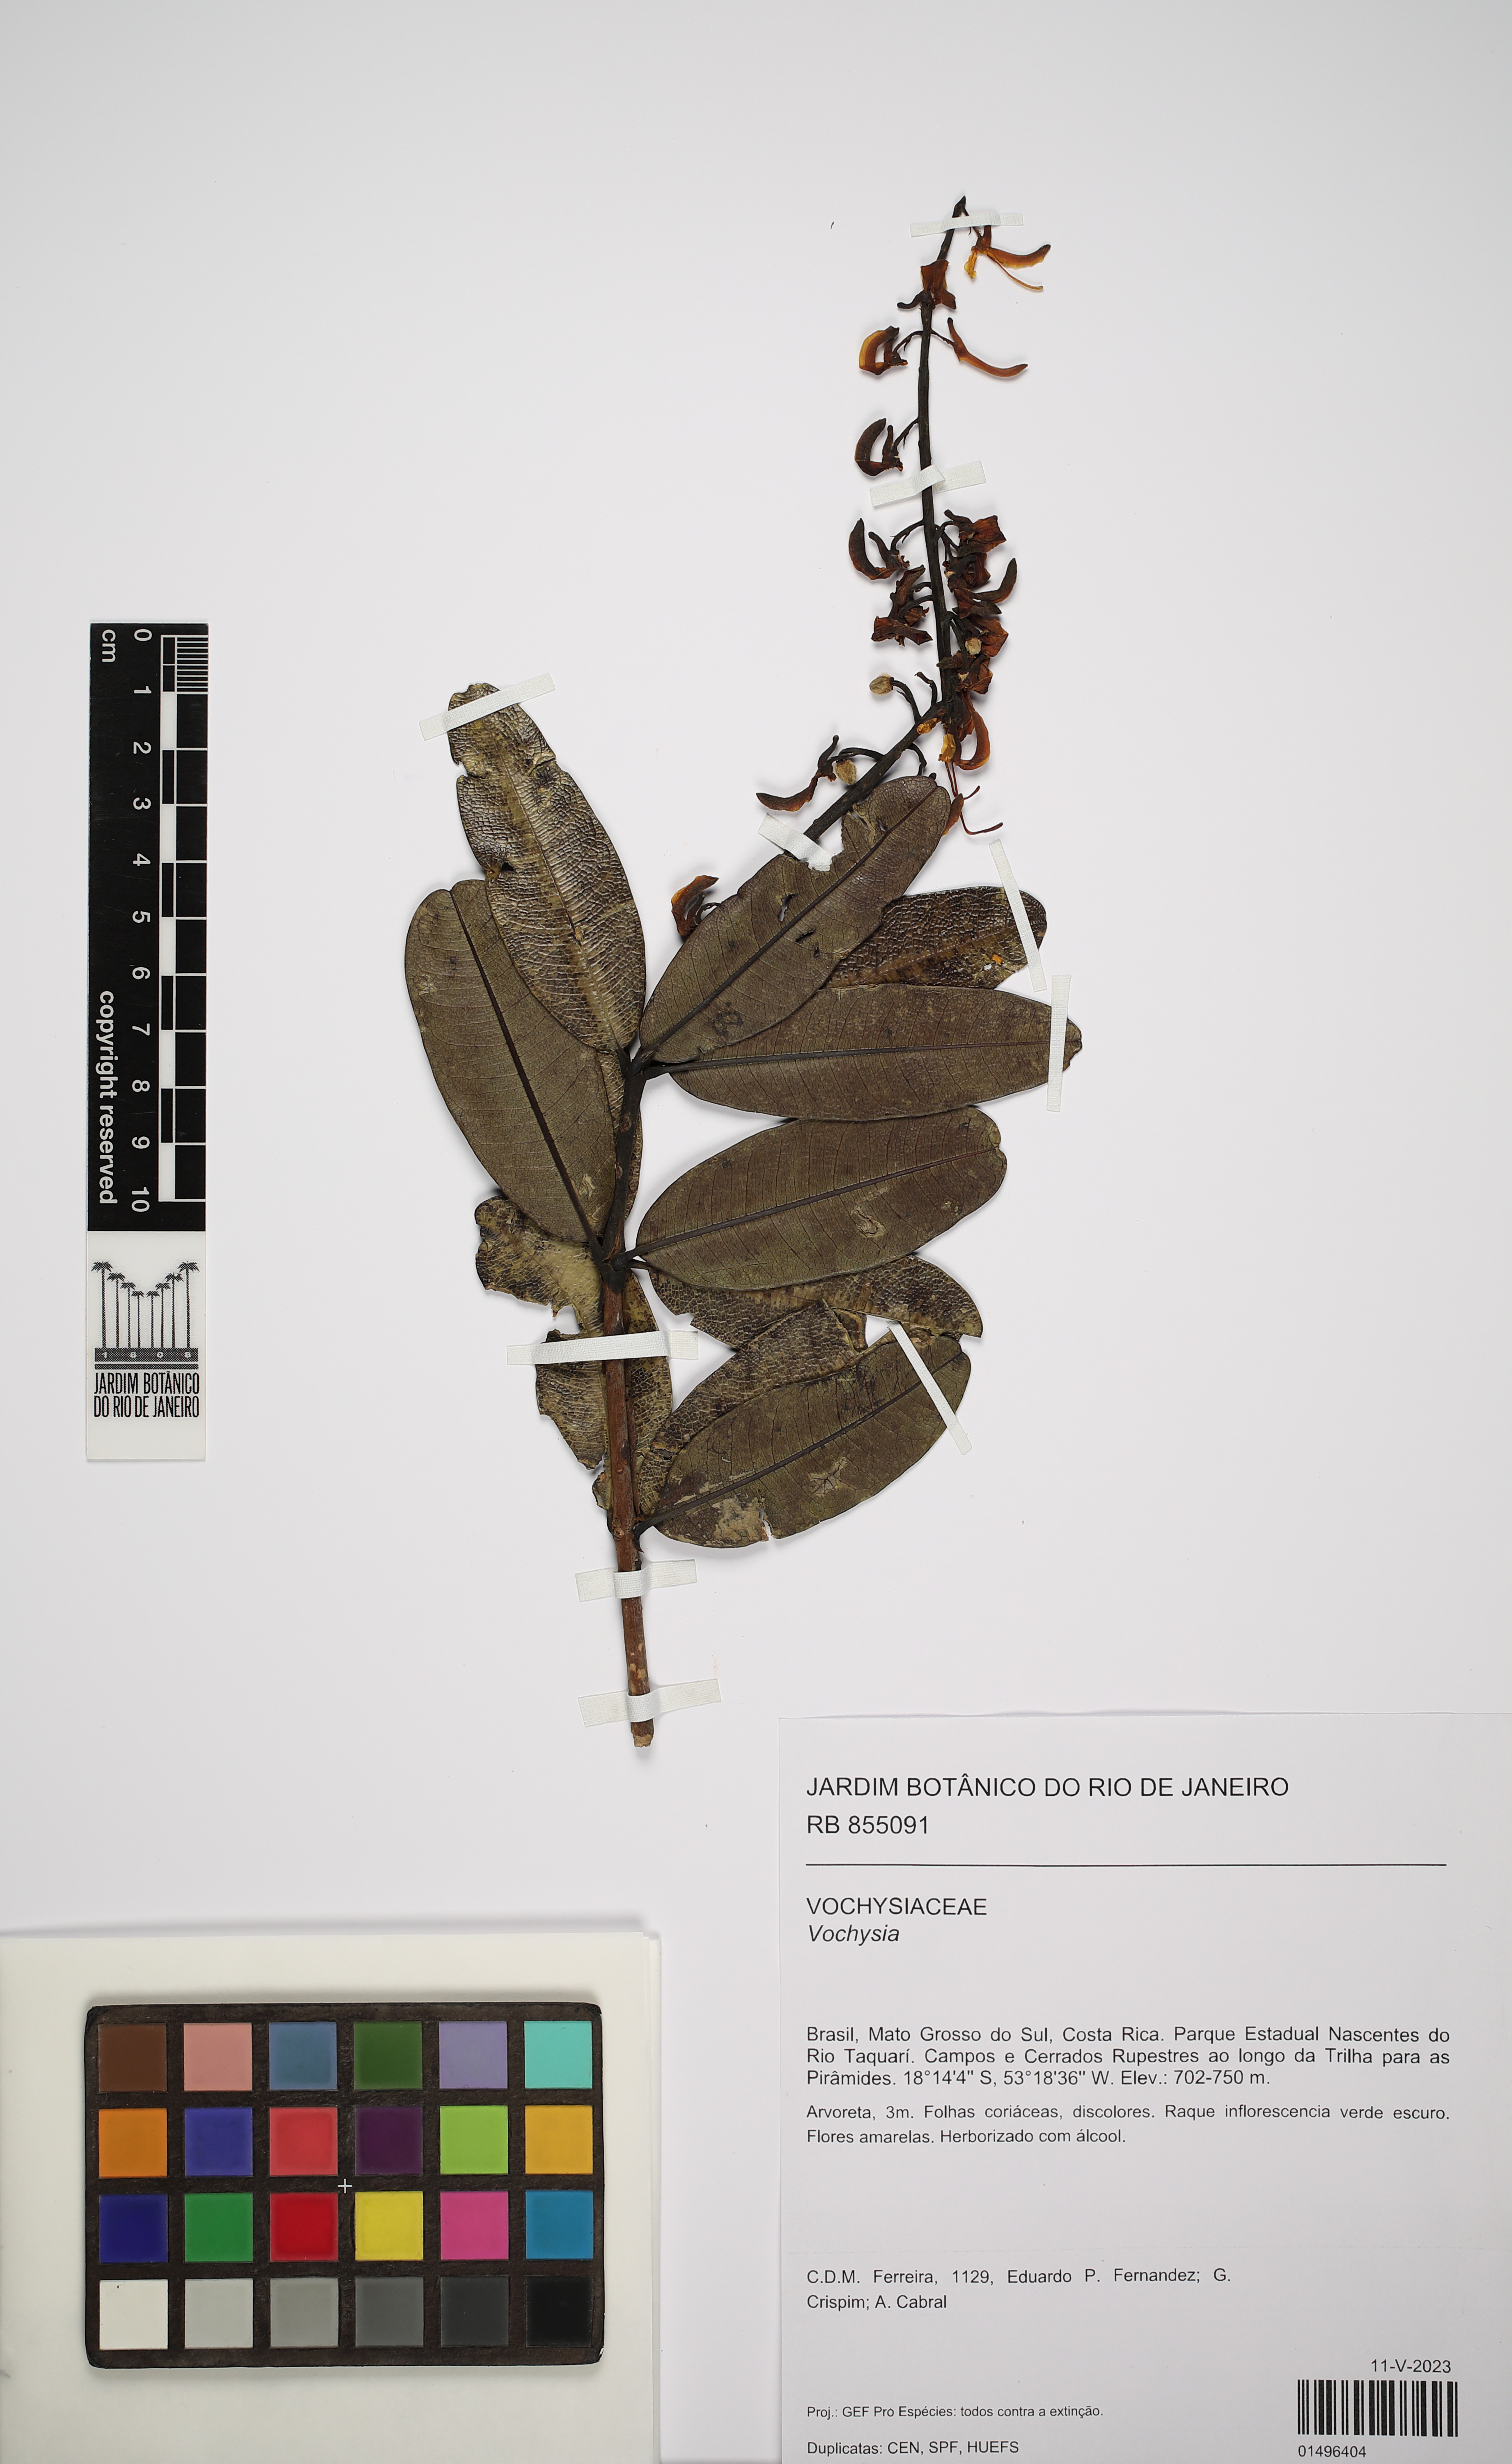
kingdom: Plantae
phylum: Tracheophyta
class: Magnoliopsida
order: Myrtales
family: Vochysiaceae
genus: Vochysia
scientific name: Vochysia
